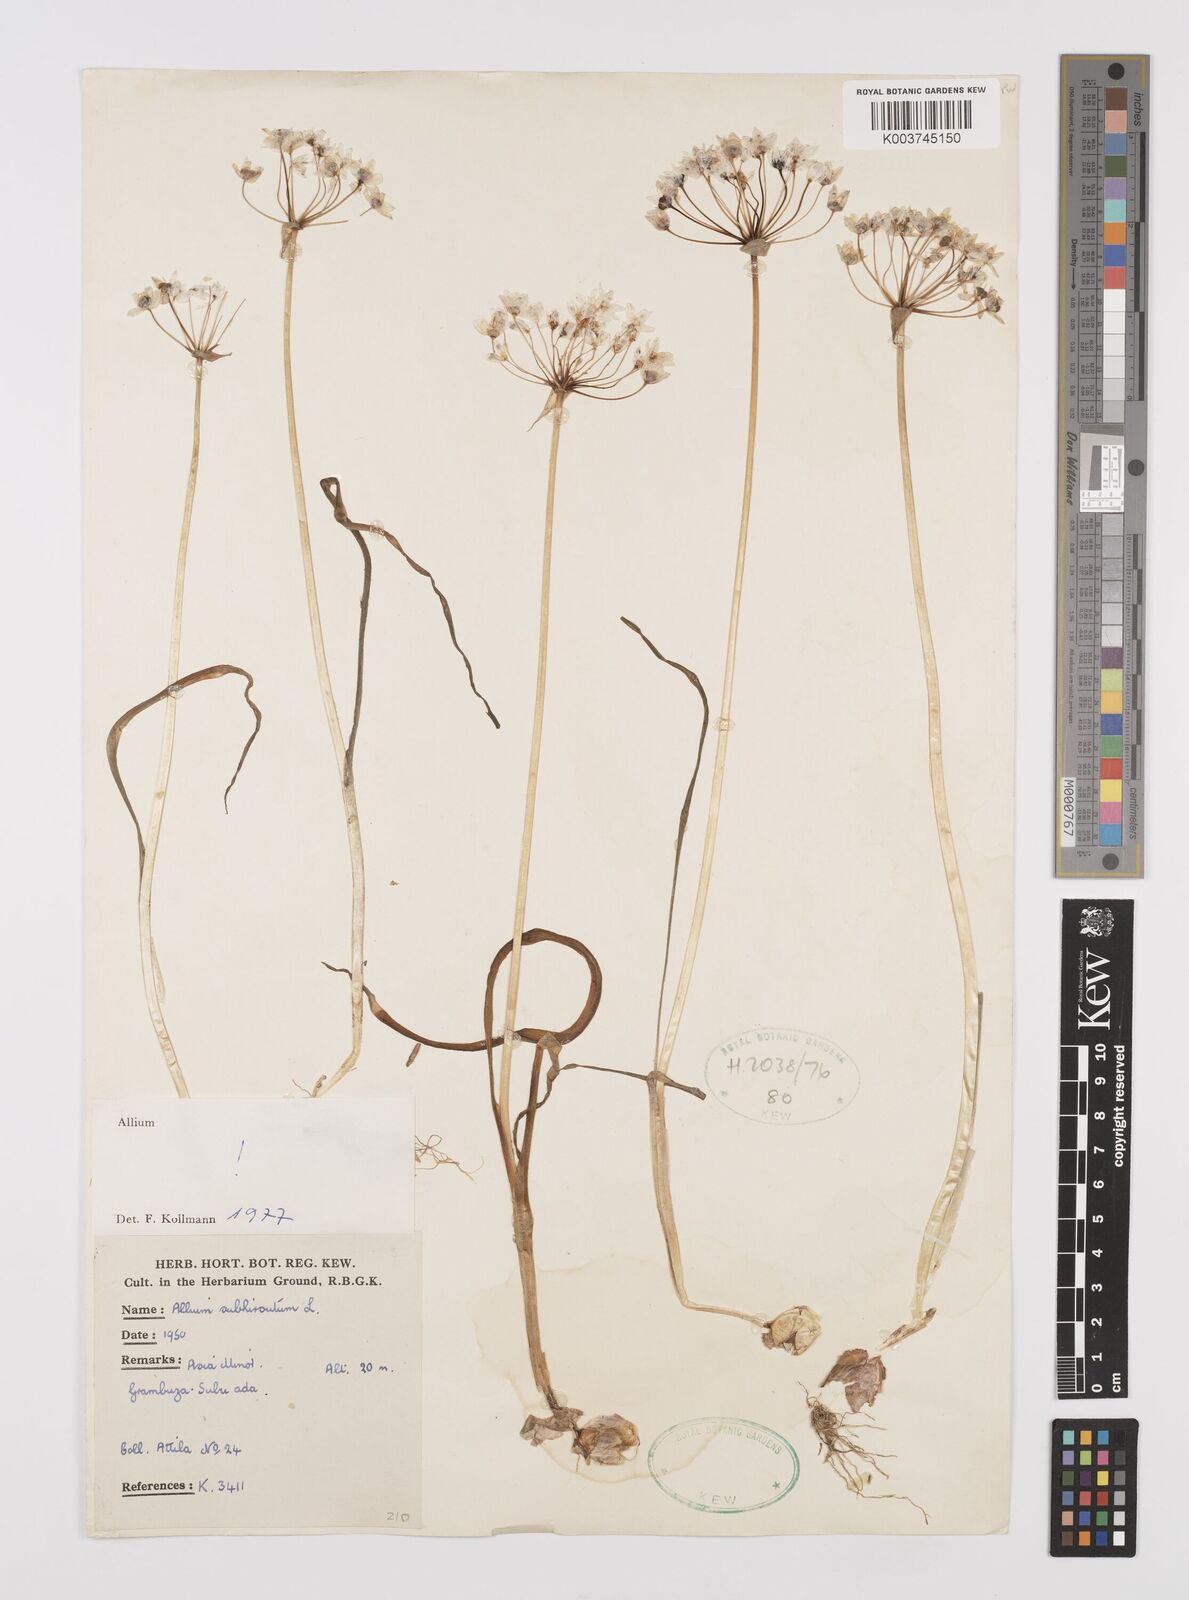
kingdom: Plantae
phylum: Tracheophyta
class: Liliopsida
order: Asparagales
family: Amaryllidaceae
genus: Allium
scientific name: Allium subhirsutum
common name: Hairy garlic
